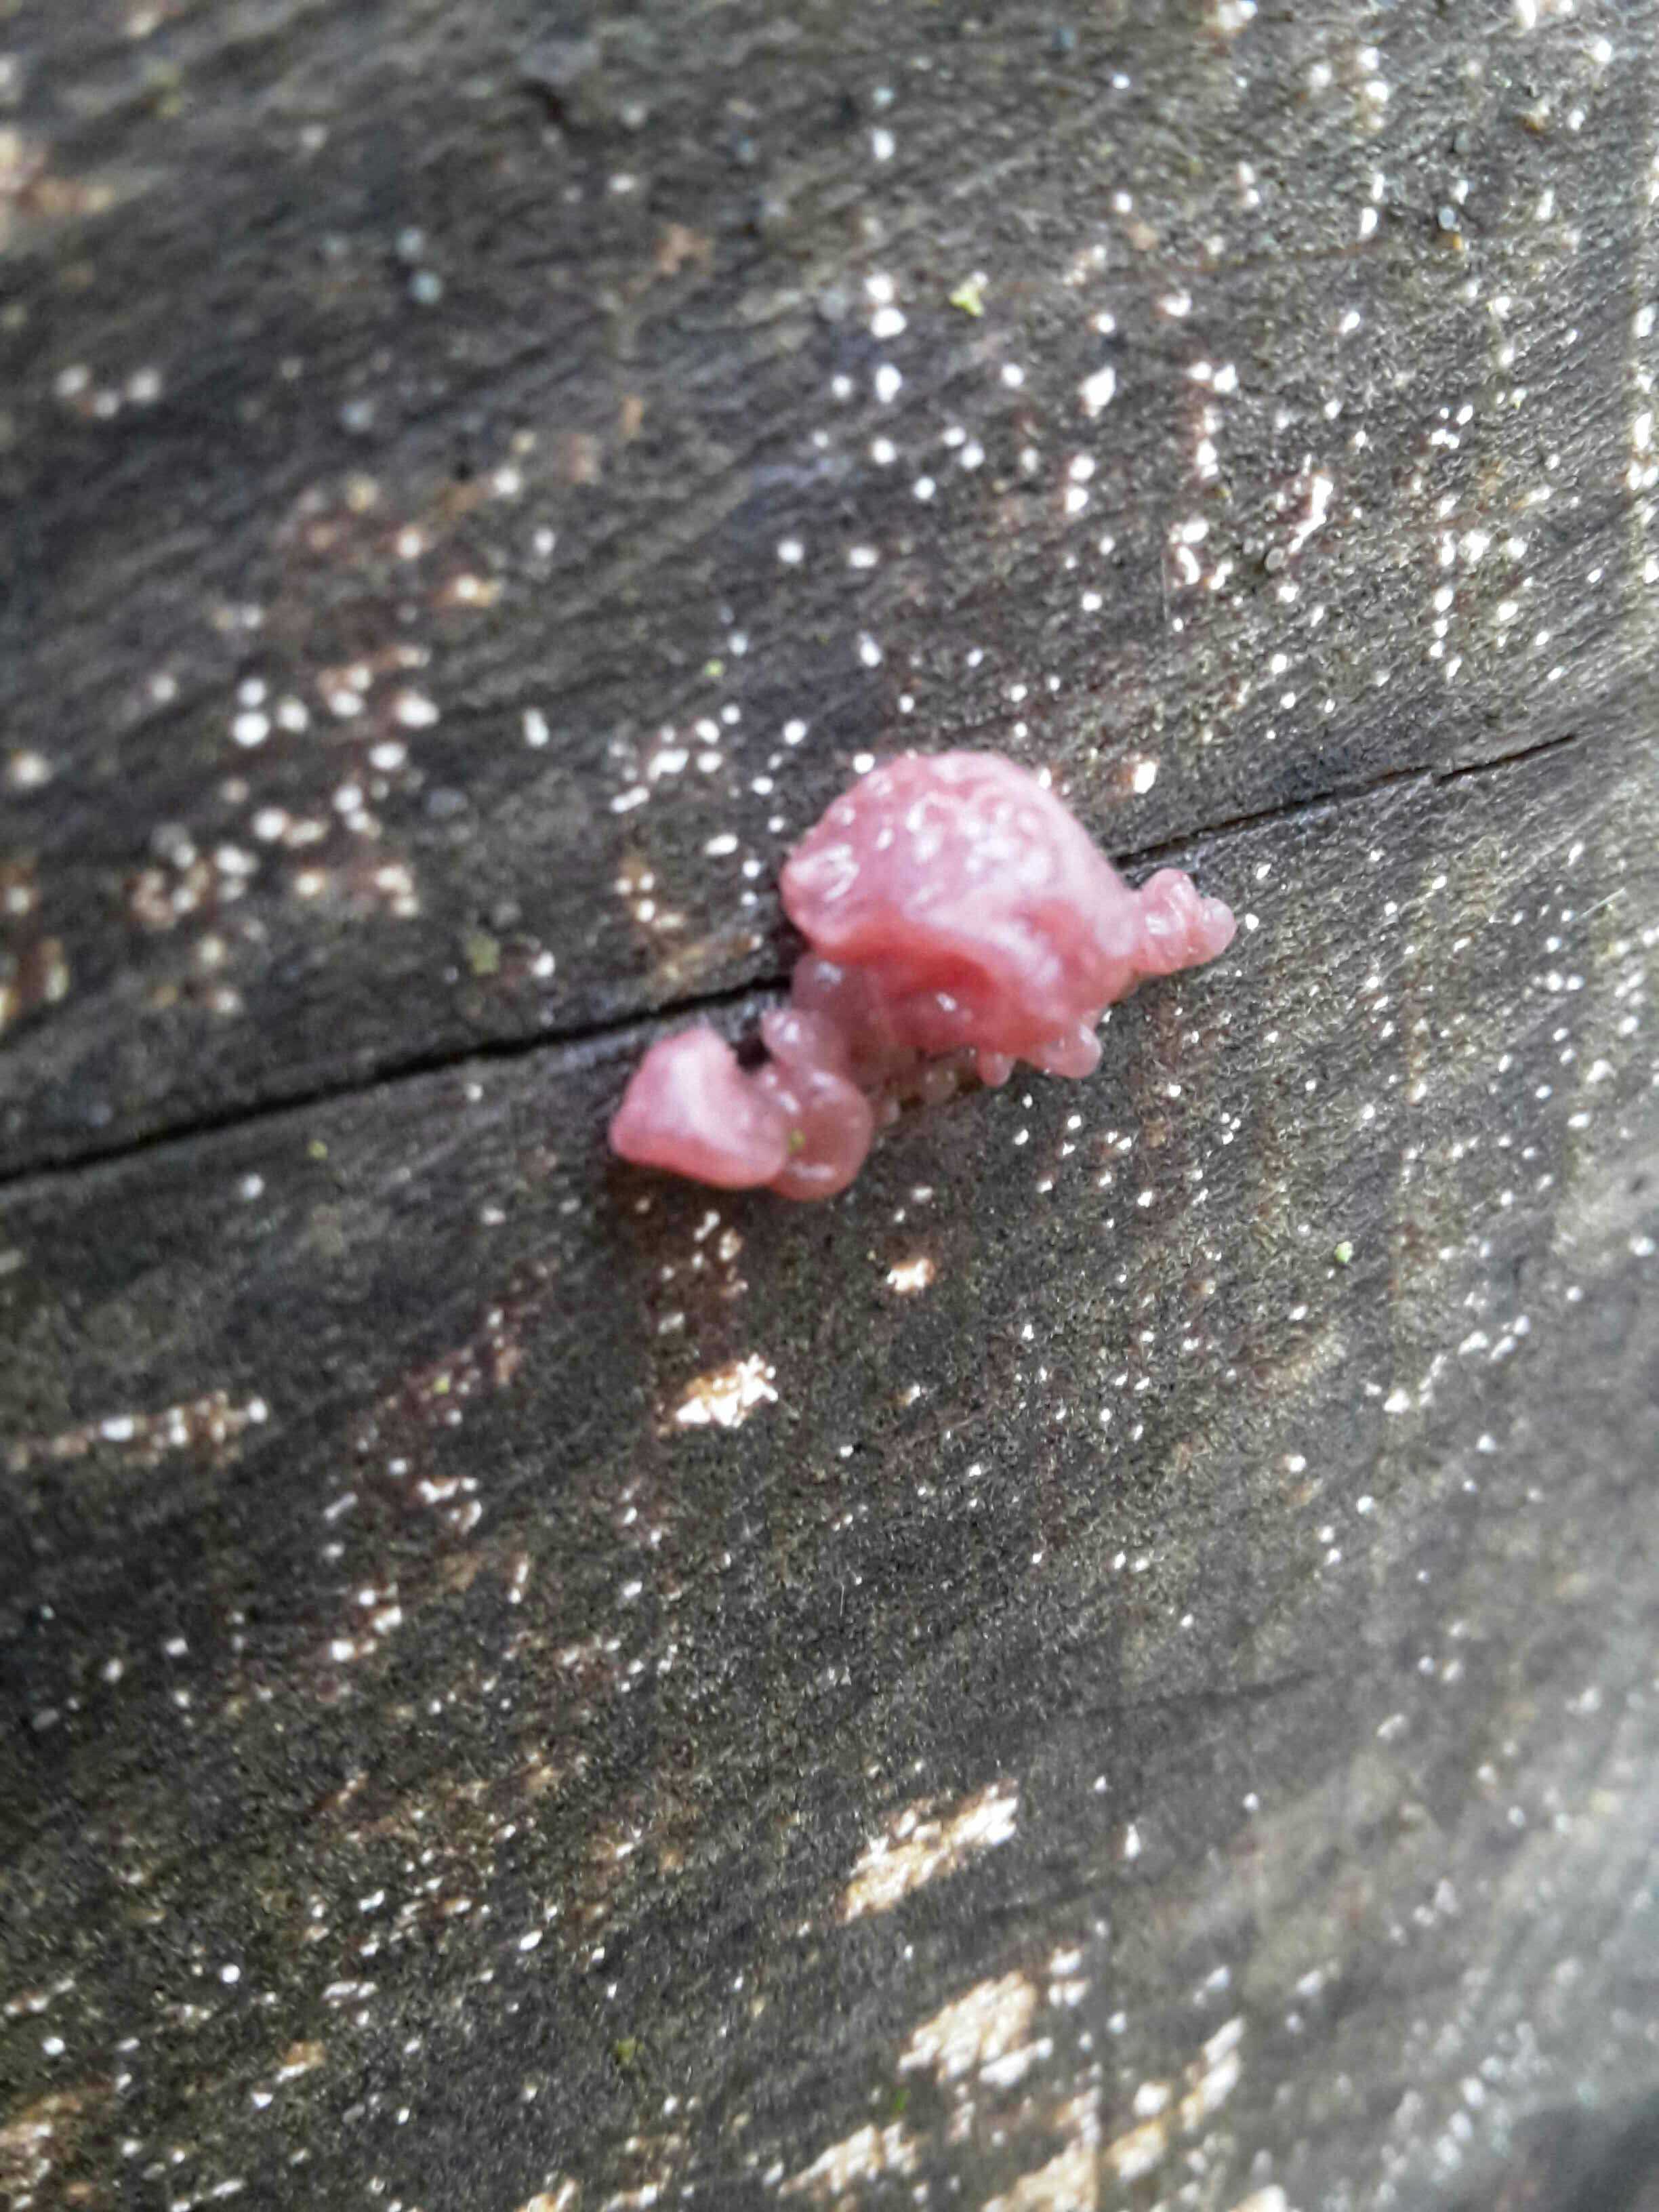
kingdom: Fungi
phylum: Ascomycota
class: Leotiomycetes
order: Helotiales
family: Gelatinodiscaceae
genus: Ascocoryne
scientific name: Ascocoryne sarcoides
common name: rødlilla sejskive
